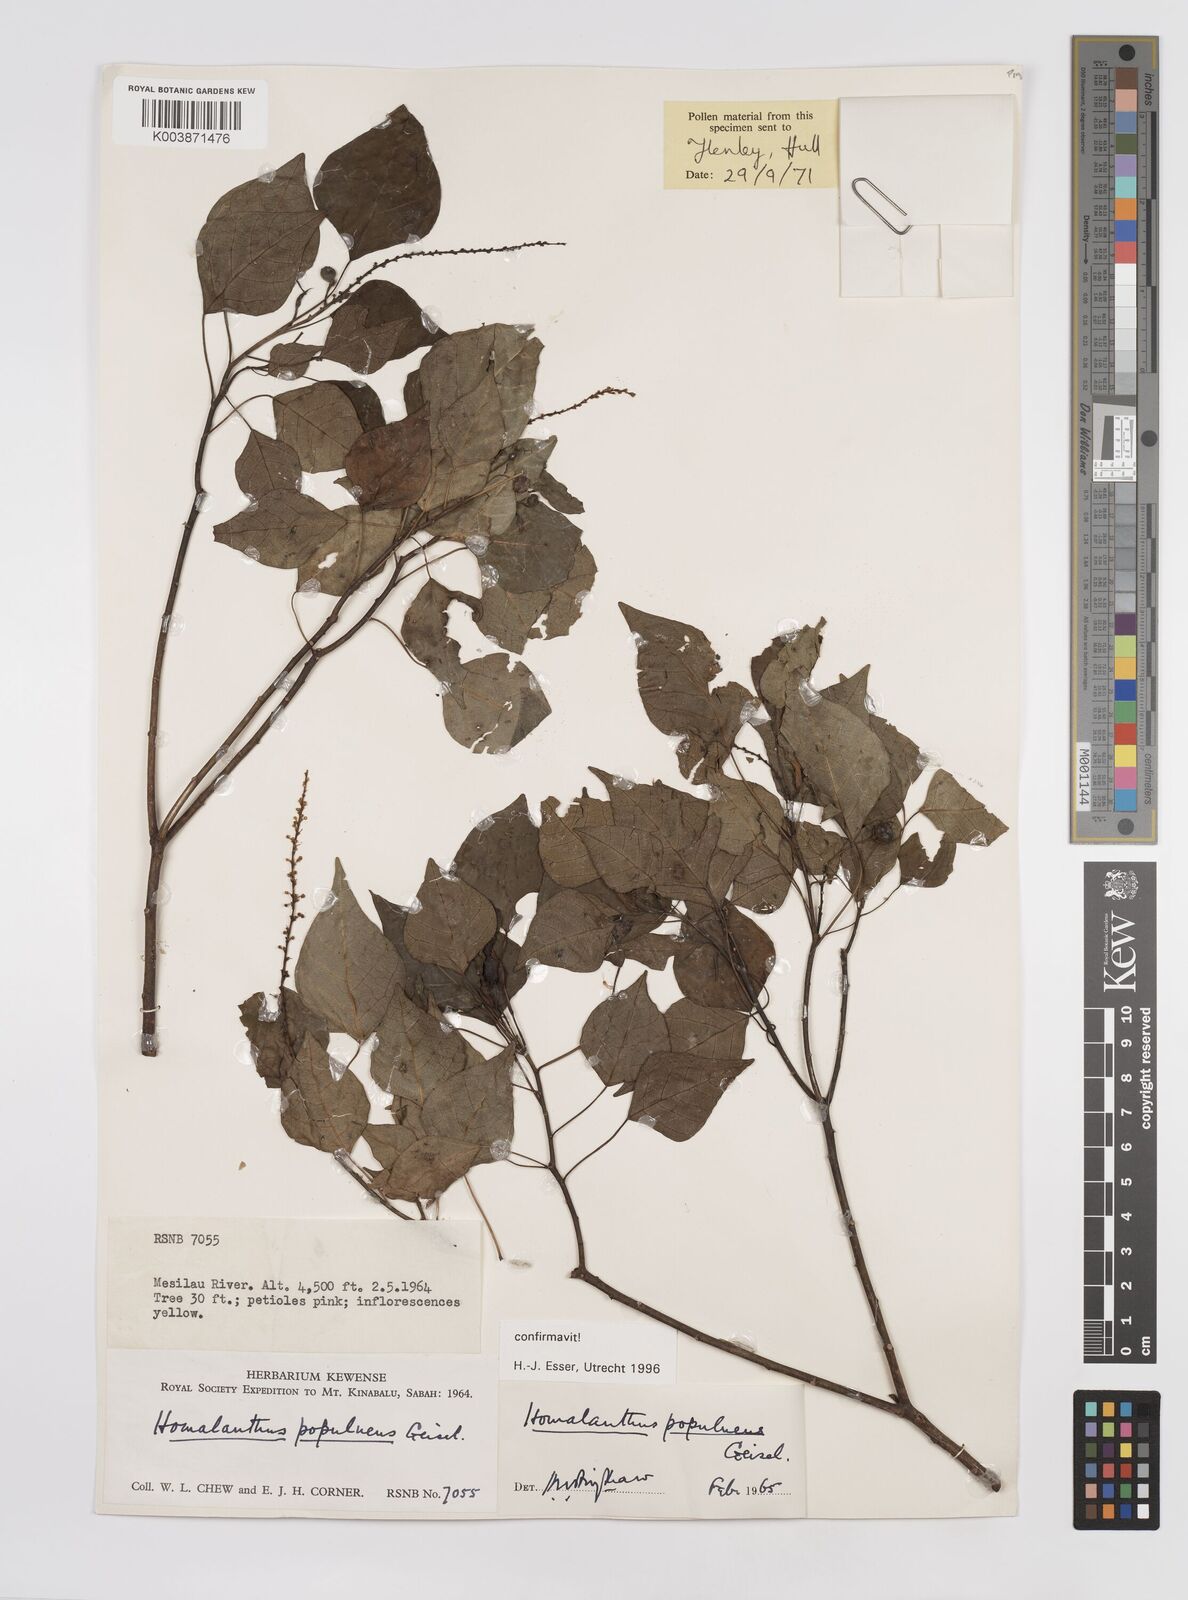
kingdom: Plantae
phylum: Tracheophyta
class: Magnoliopsida
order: Malpighiales
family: Euphorbiaceae
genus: Homalanthus
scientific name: Homalanthus populneus
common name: Spurge
